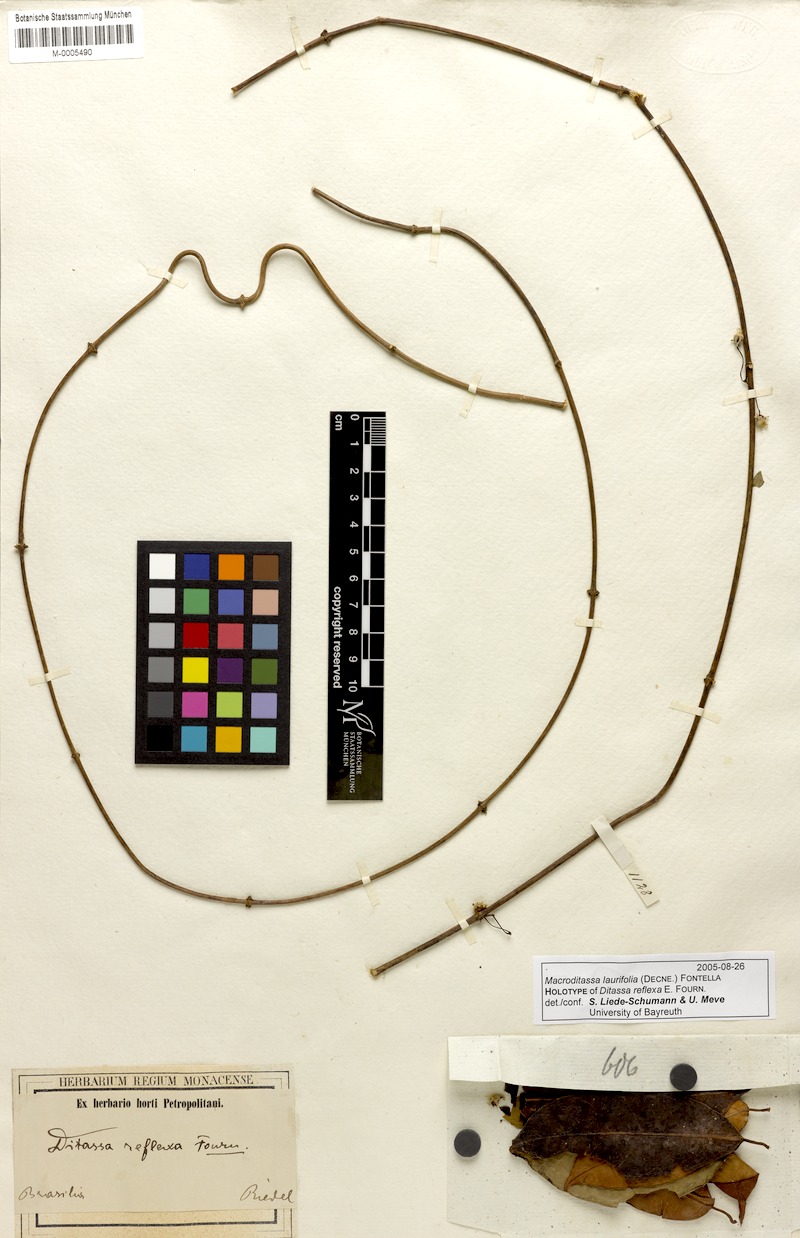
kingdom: Plantae
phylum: Tracheophyta
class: Magnoliopsida
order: Gentianales
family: Apocynaceae
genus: Nephradenia
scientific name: Nephradenia laurifolia
